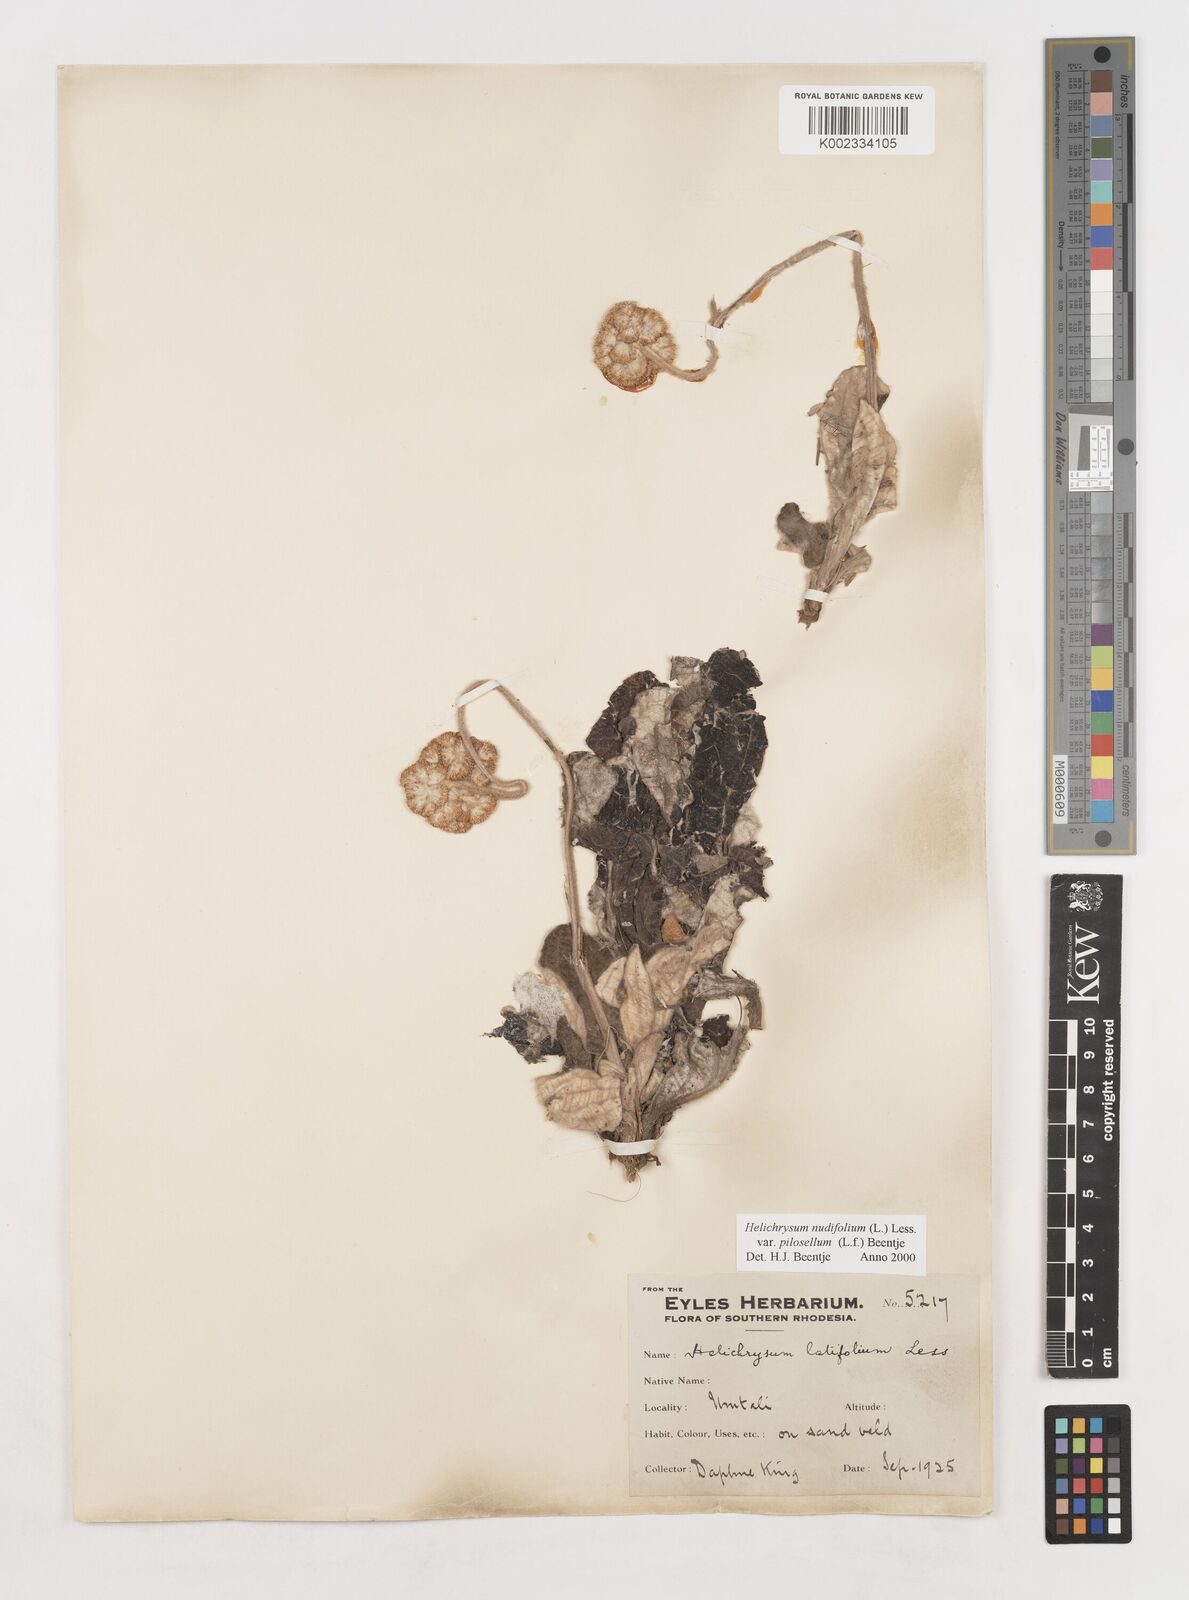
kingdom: Plantae
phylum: Tracheophyta
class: Magnoliopsida
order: Asterales
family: Asteraceae
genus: Helichrysum
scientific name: Helichrysum nudifolium
